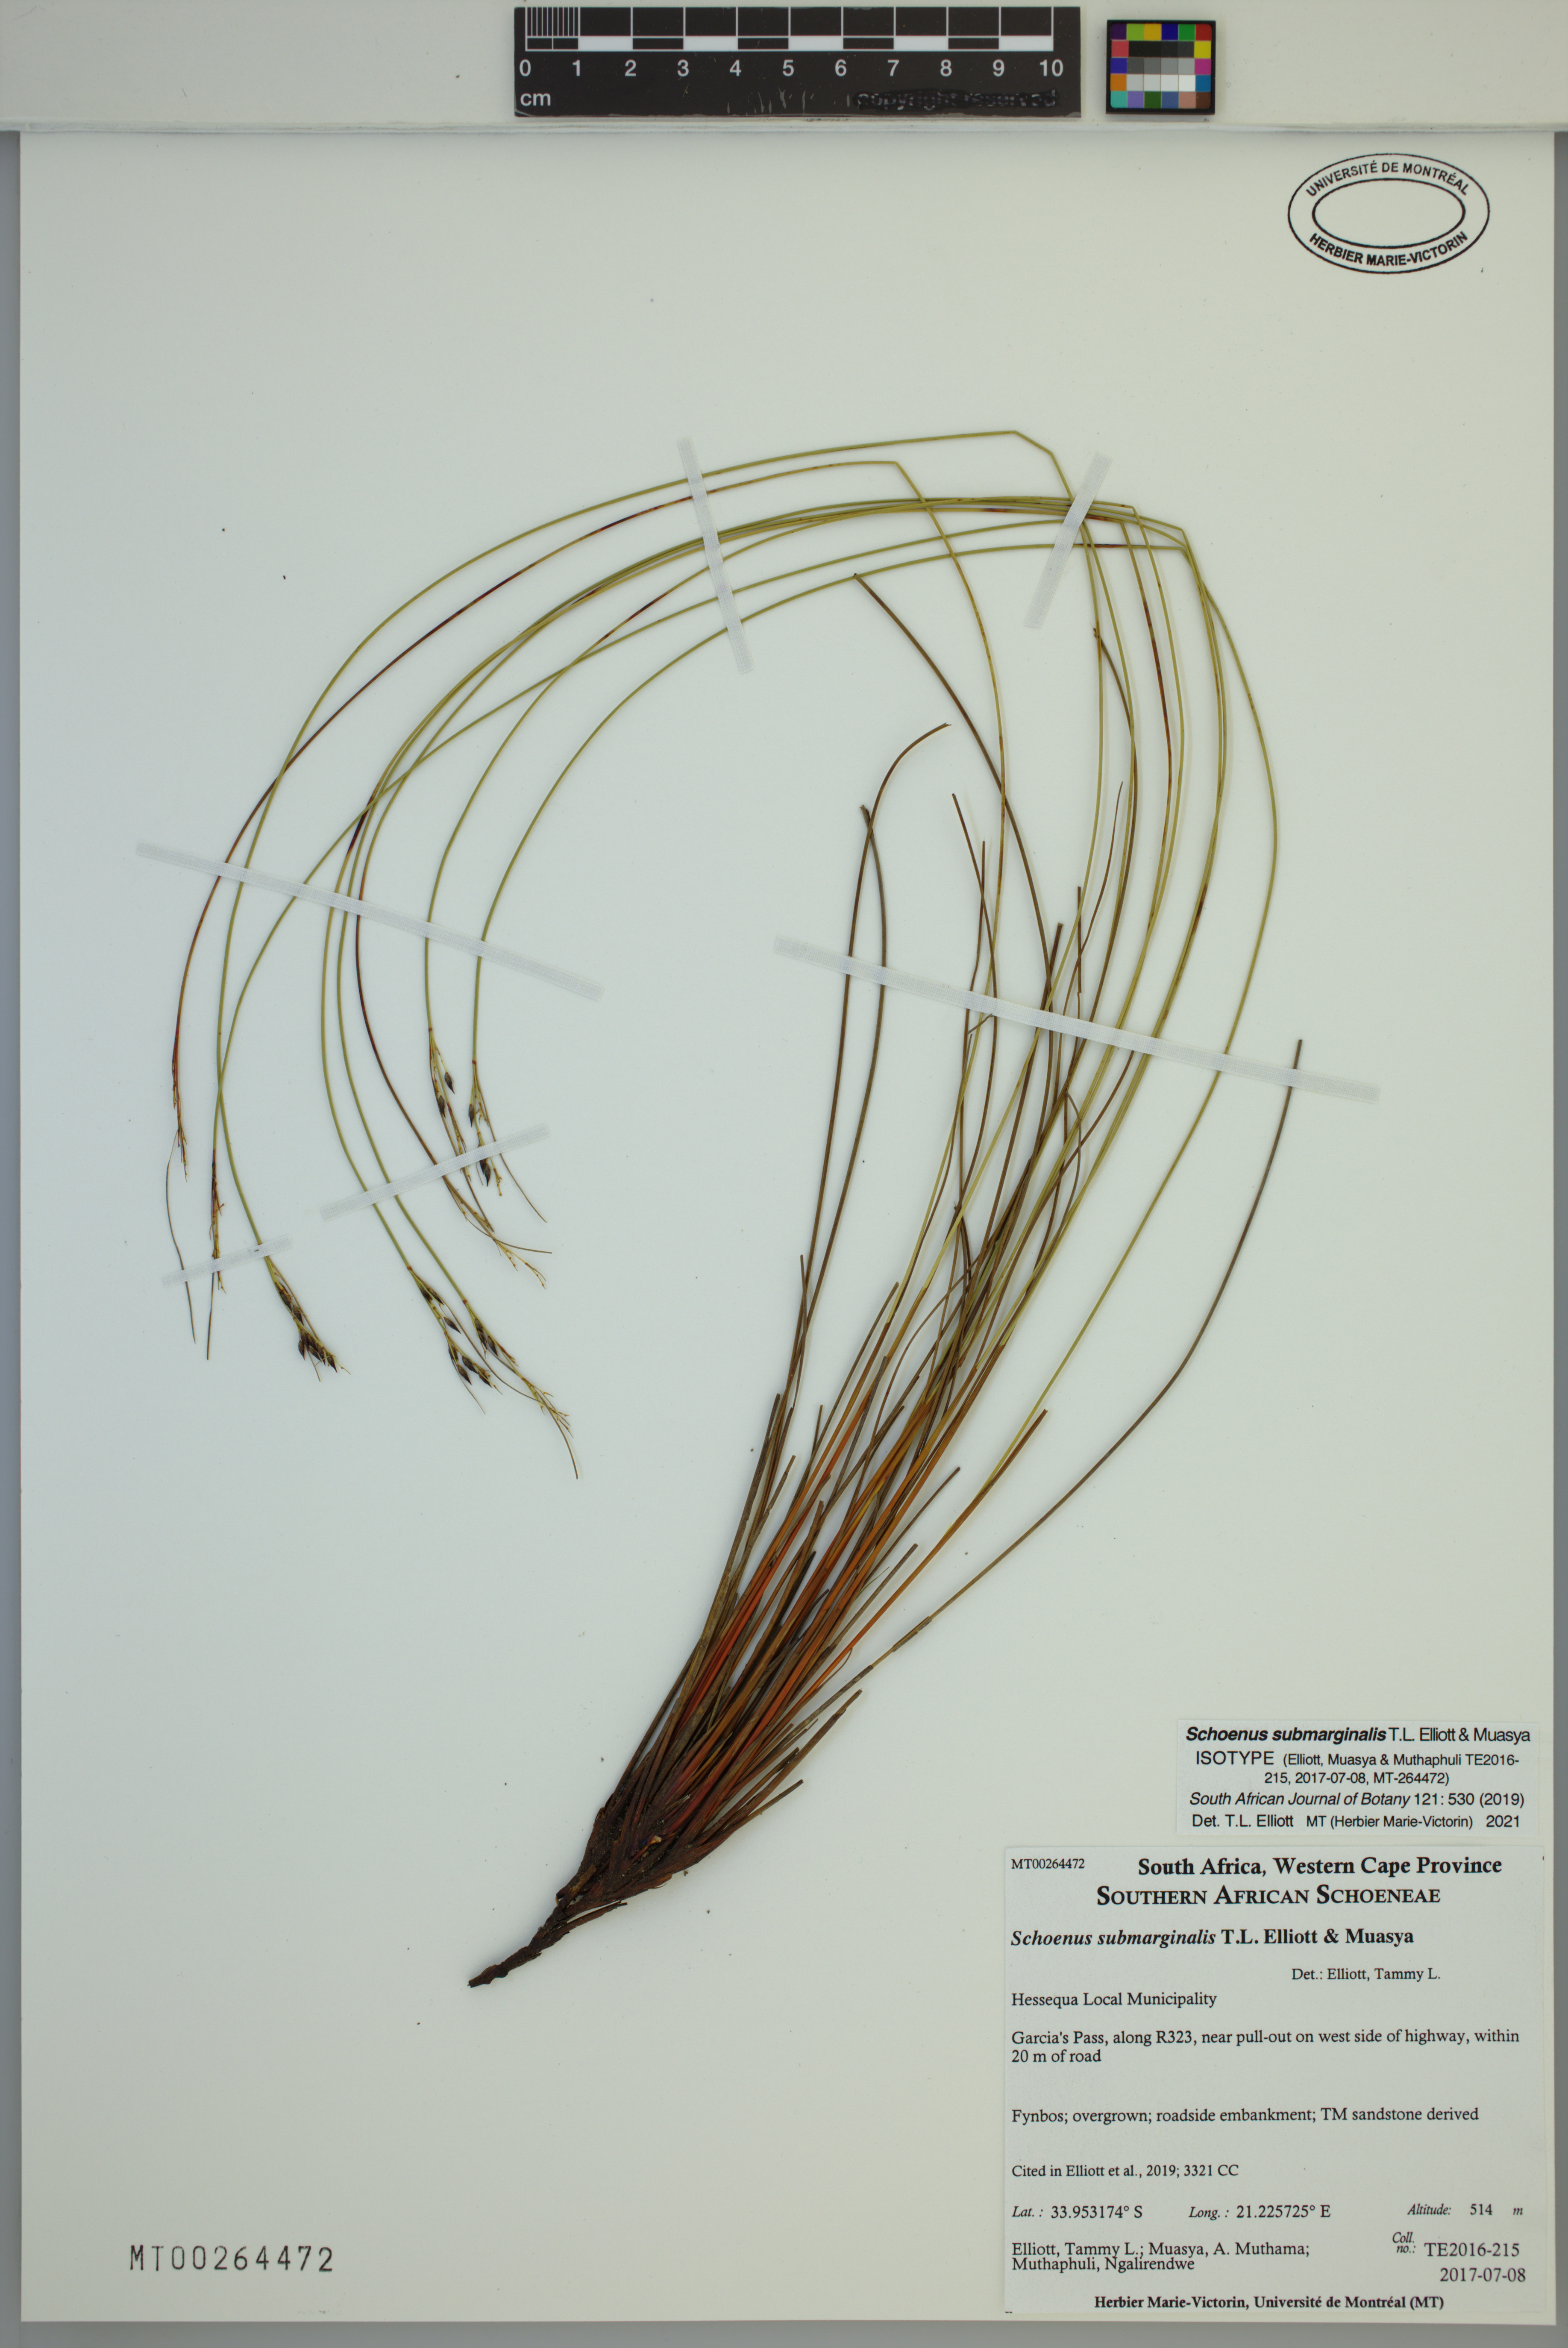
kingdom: Plantae
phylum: Tracheophyta
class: Liliopsida
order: Poales
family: Cyperaceae
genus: Schoenus
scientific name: Schoenus submarginalis
